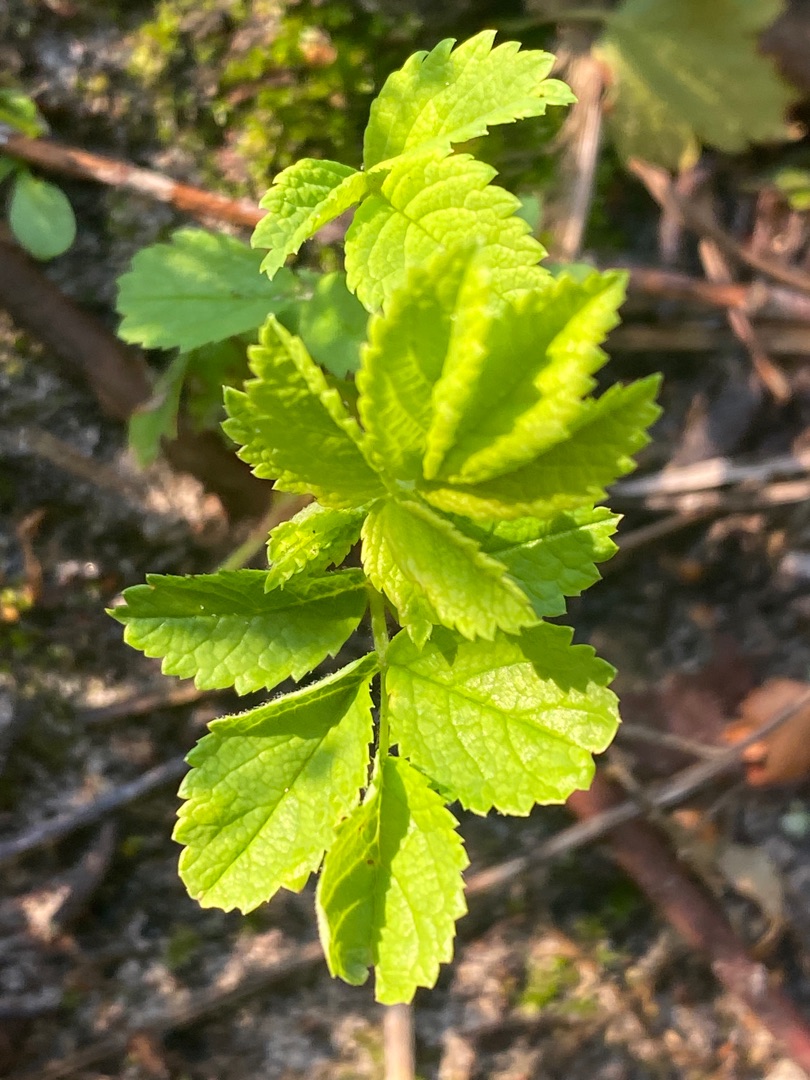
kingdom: Plantae
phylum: Tracheophyta
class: Magnoliopsida
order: Rosales
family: Rosaceae
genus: Rosa
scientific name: Rosa rugosa
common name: Rynket rose
